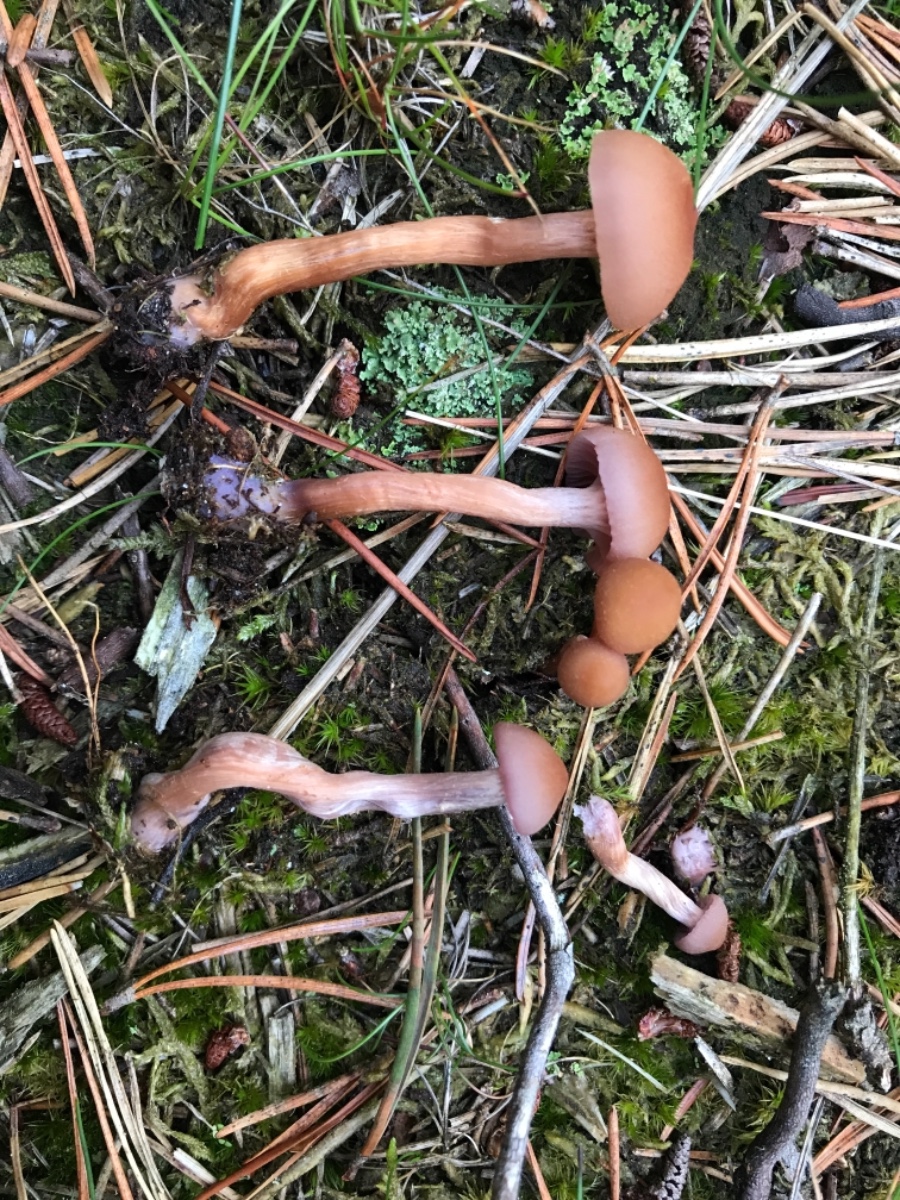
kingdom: Fungi
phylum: Basidiomycota
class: Agaricomycetes
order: Agaricales
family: Hydnangiaceae
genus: Laccaria
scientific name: Laccaria bicolor
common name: tvefarvet ametysthat
